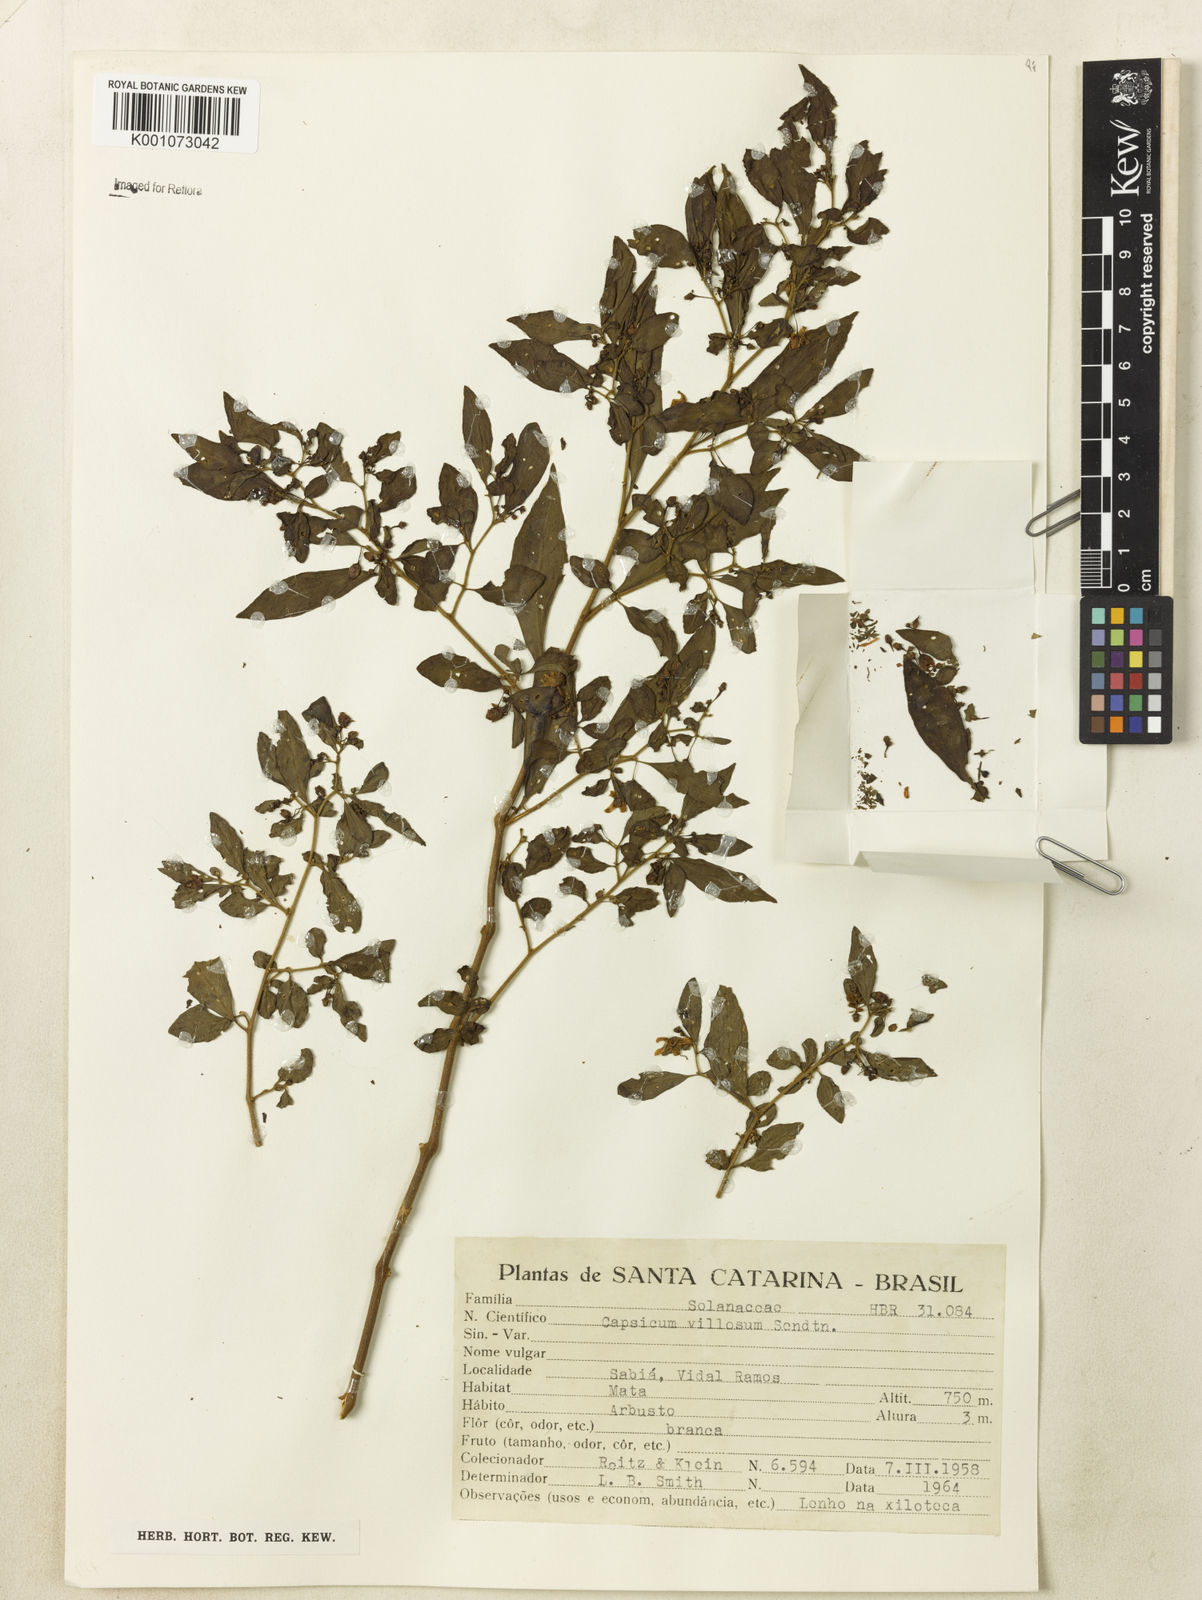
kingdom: Plantae
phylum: Tracheophyta
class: Magnoliopsida
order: Solanales
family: Solanaceae
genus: Capsicum
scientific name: Capsicum villosum
